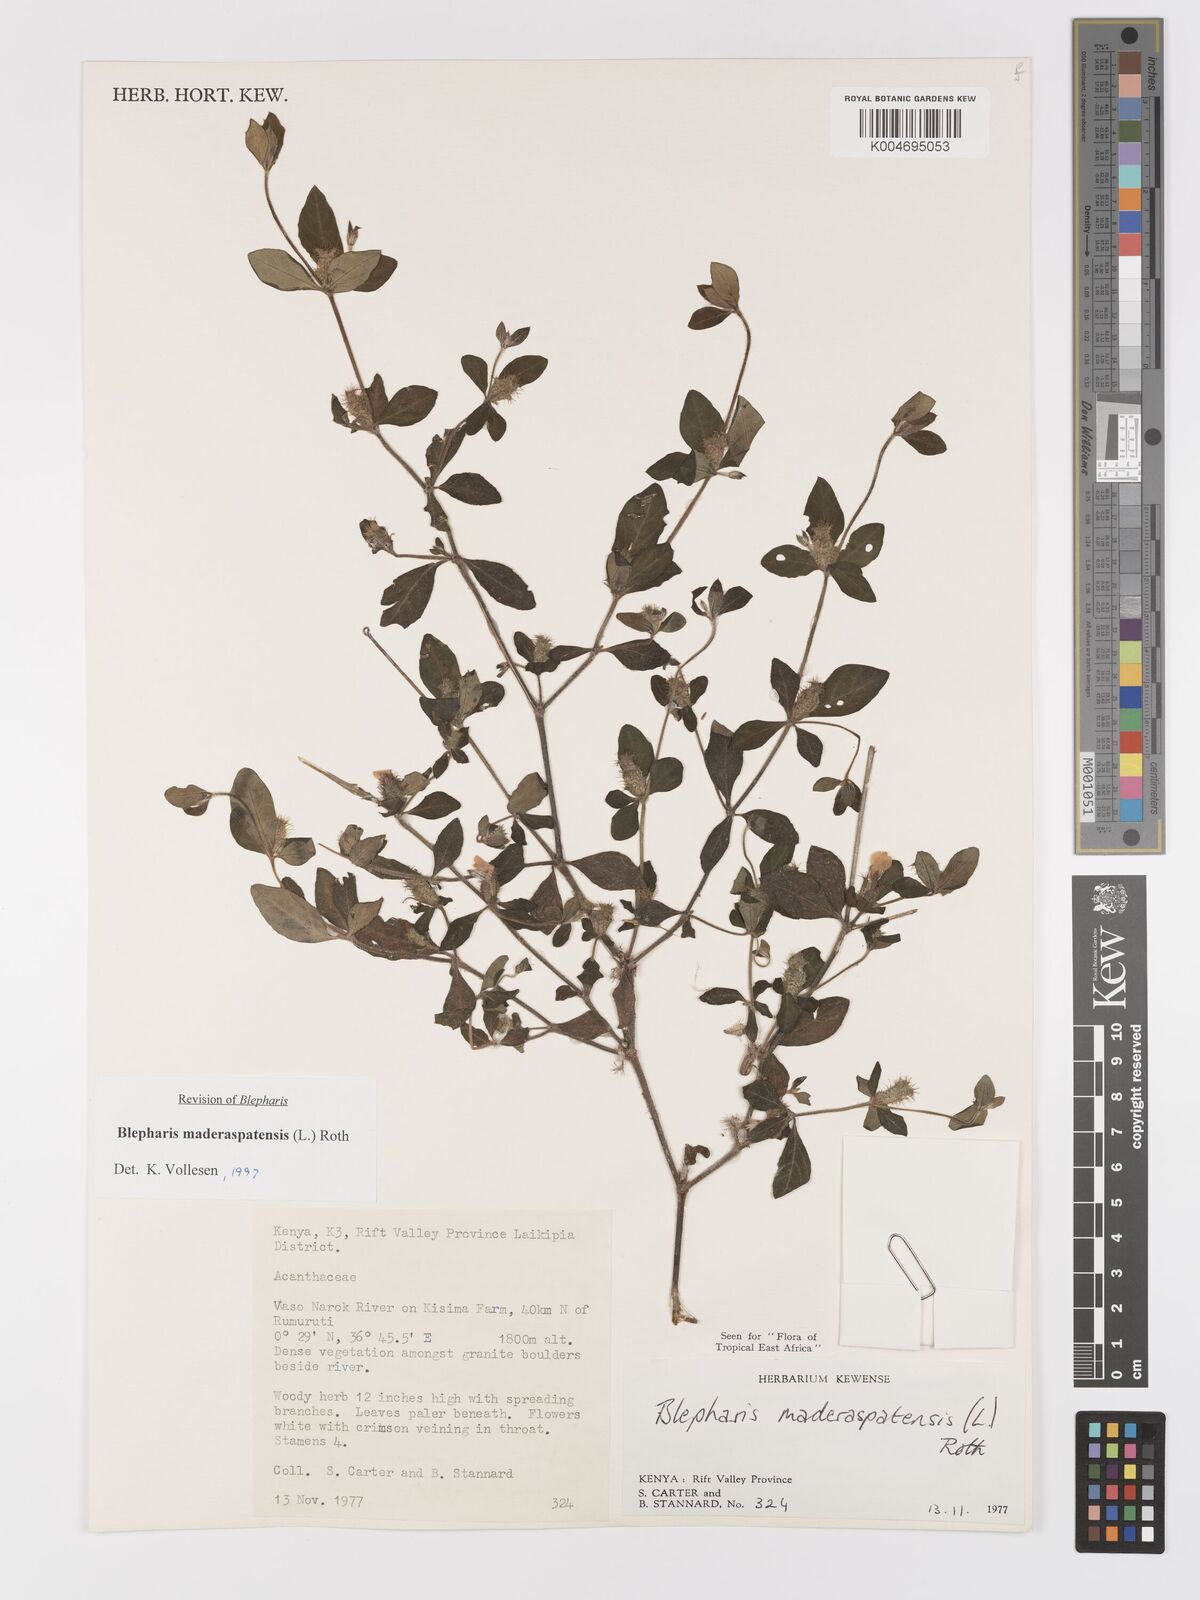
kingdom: Plantae
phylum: Tracheophyta
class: Magnoliopsida
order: Lamiales
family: Acanthaceae
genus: Blepharis
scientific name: Blepharis maderaspatensis
